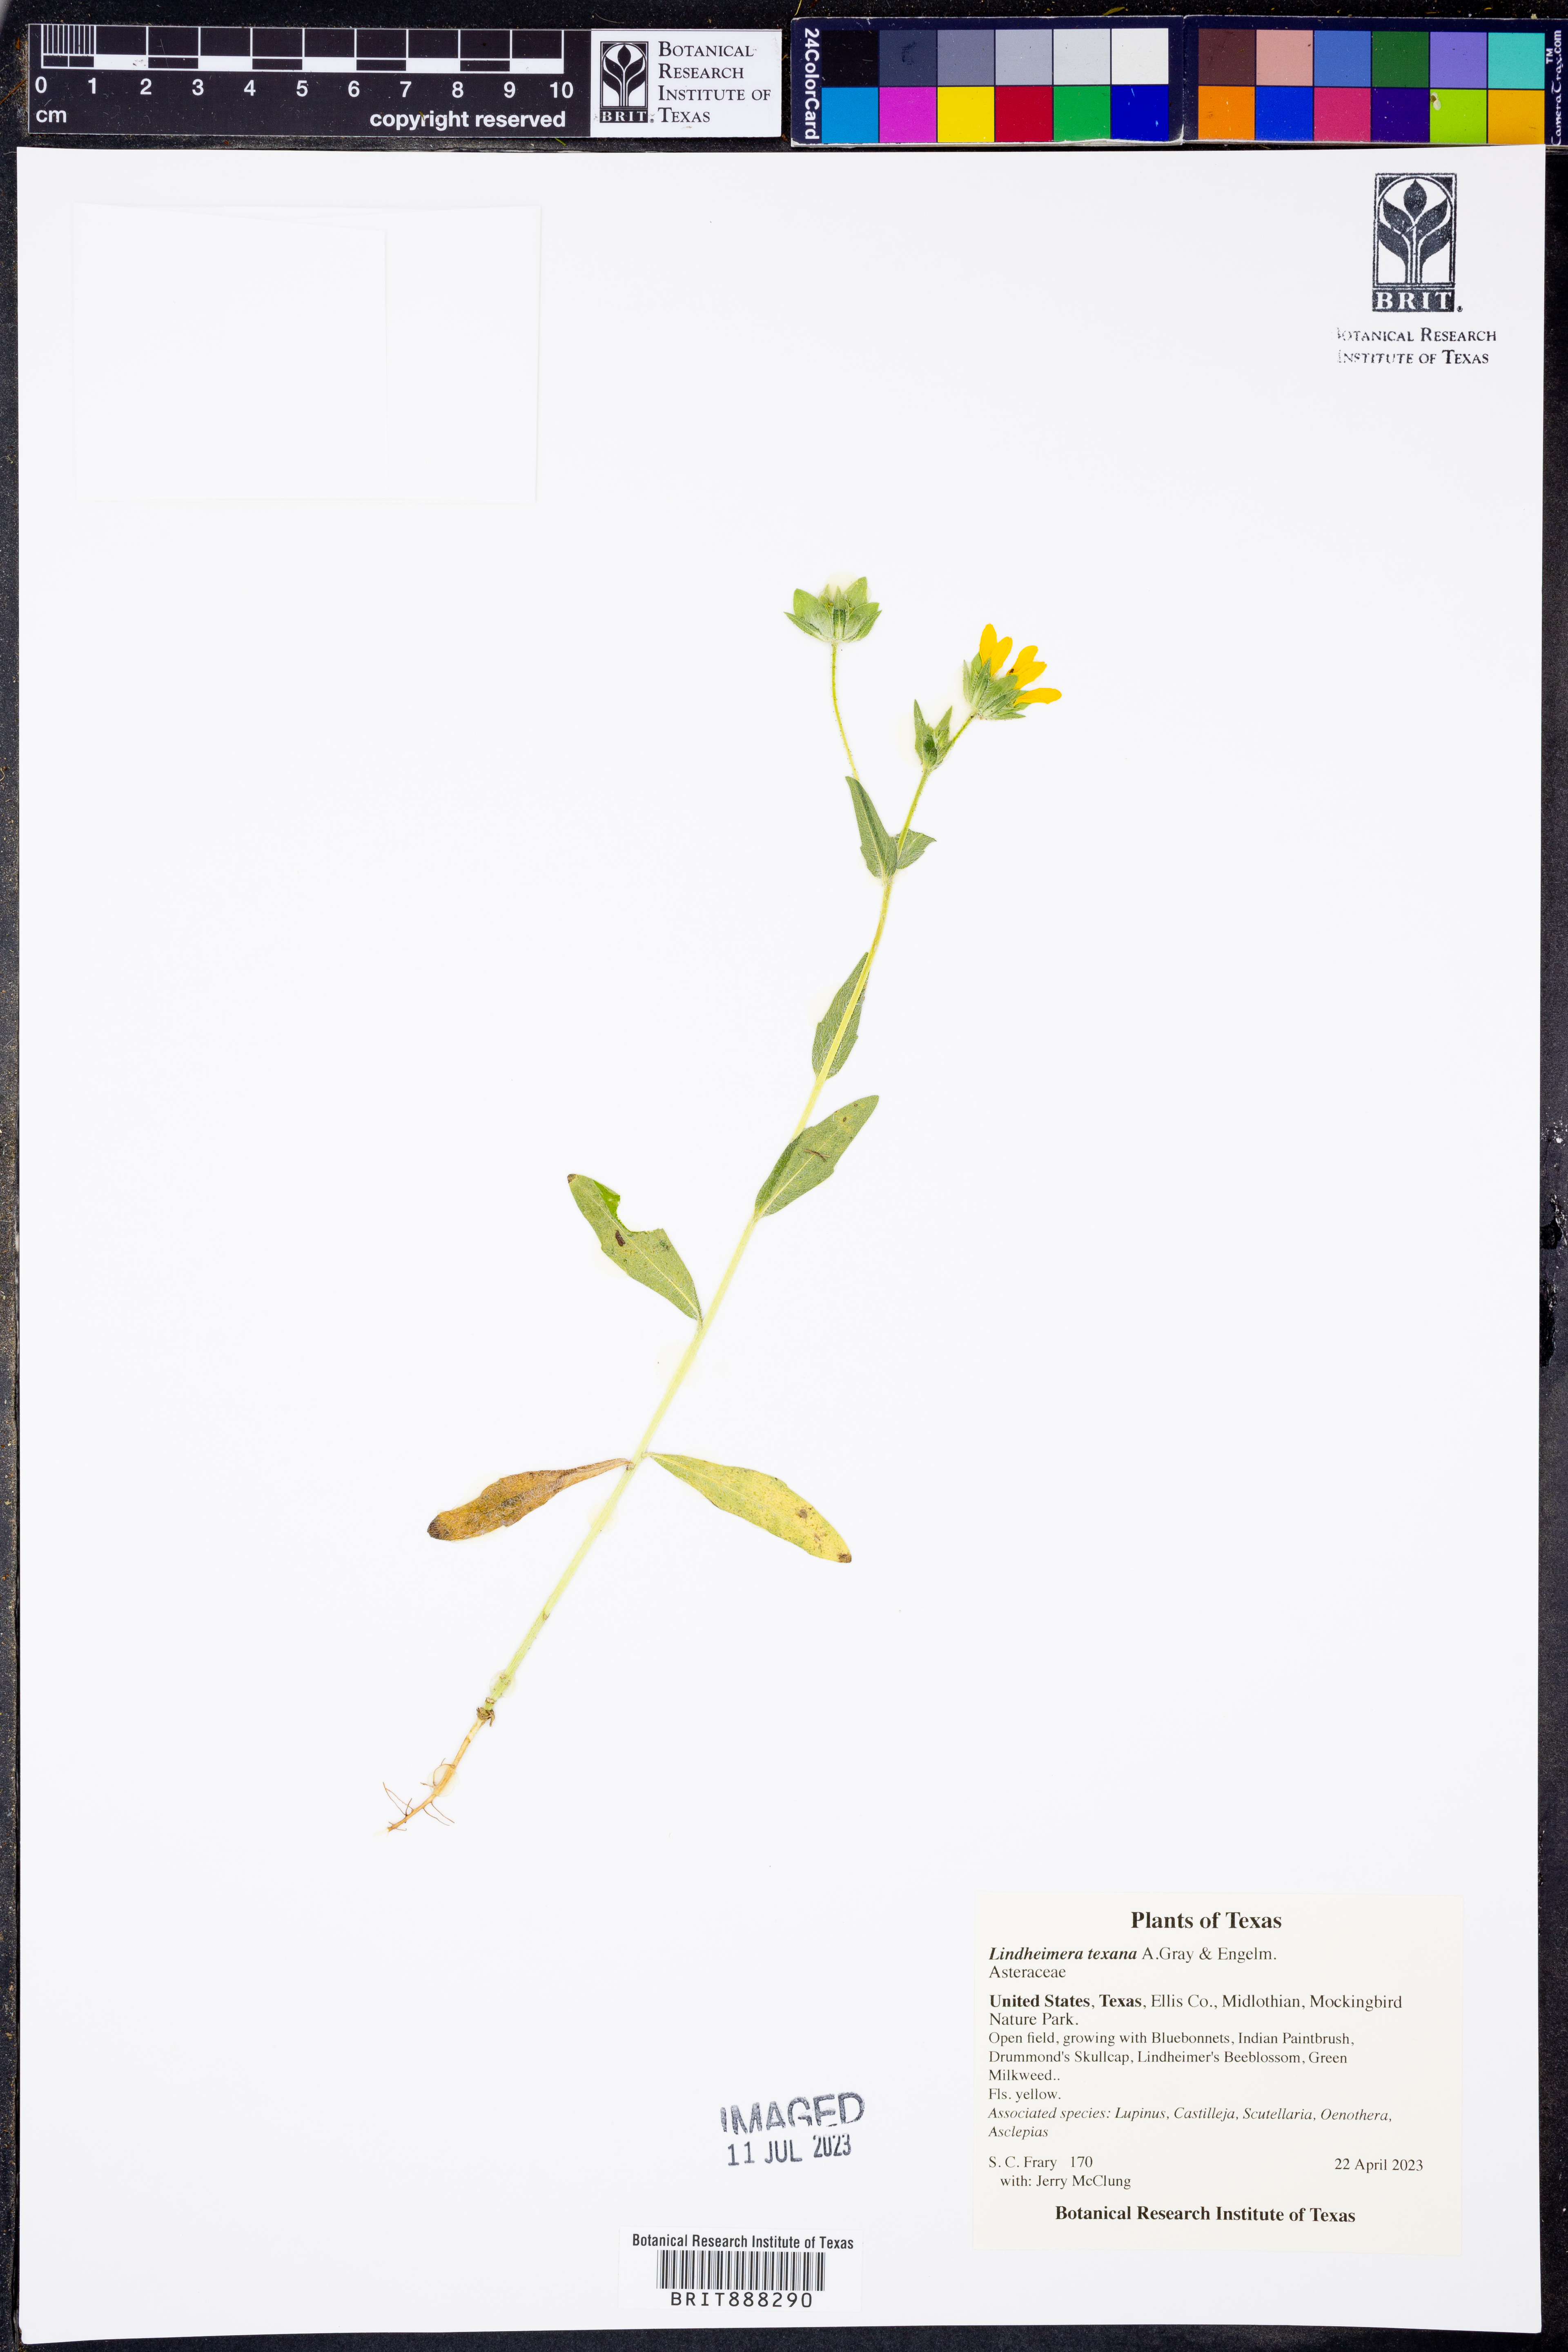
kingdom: Plantae
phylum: Tracheophyta
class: Magnoliopsida
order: Asterales
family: Asteraceae
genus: Lindheimera
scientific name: Lindheimera texana
